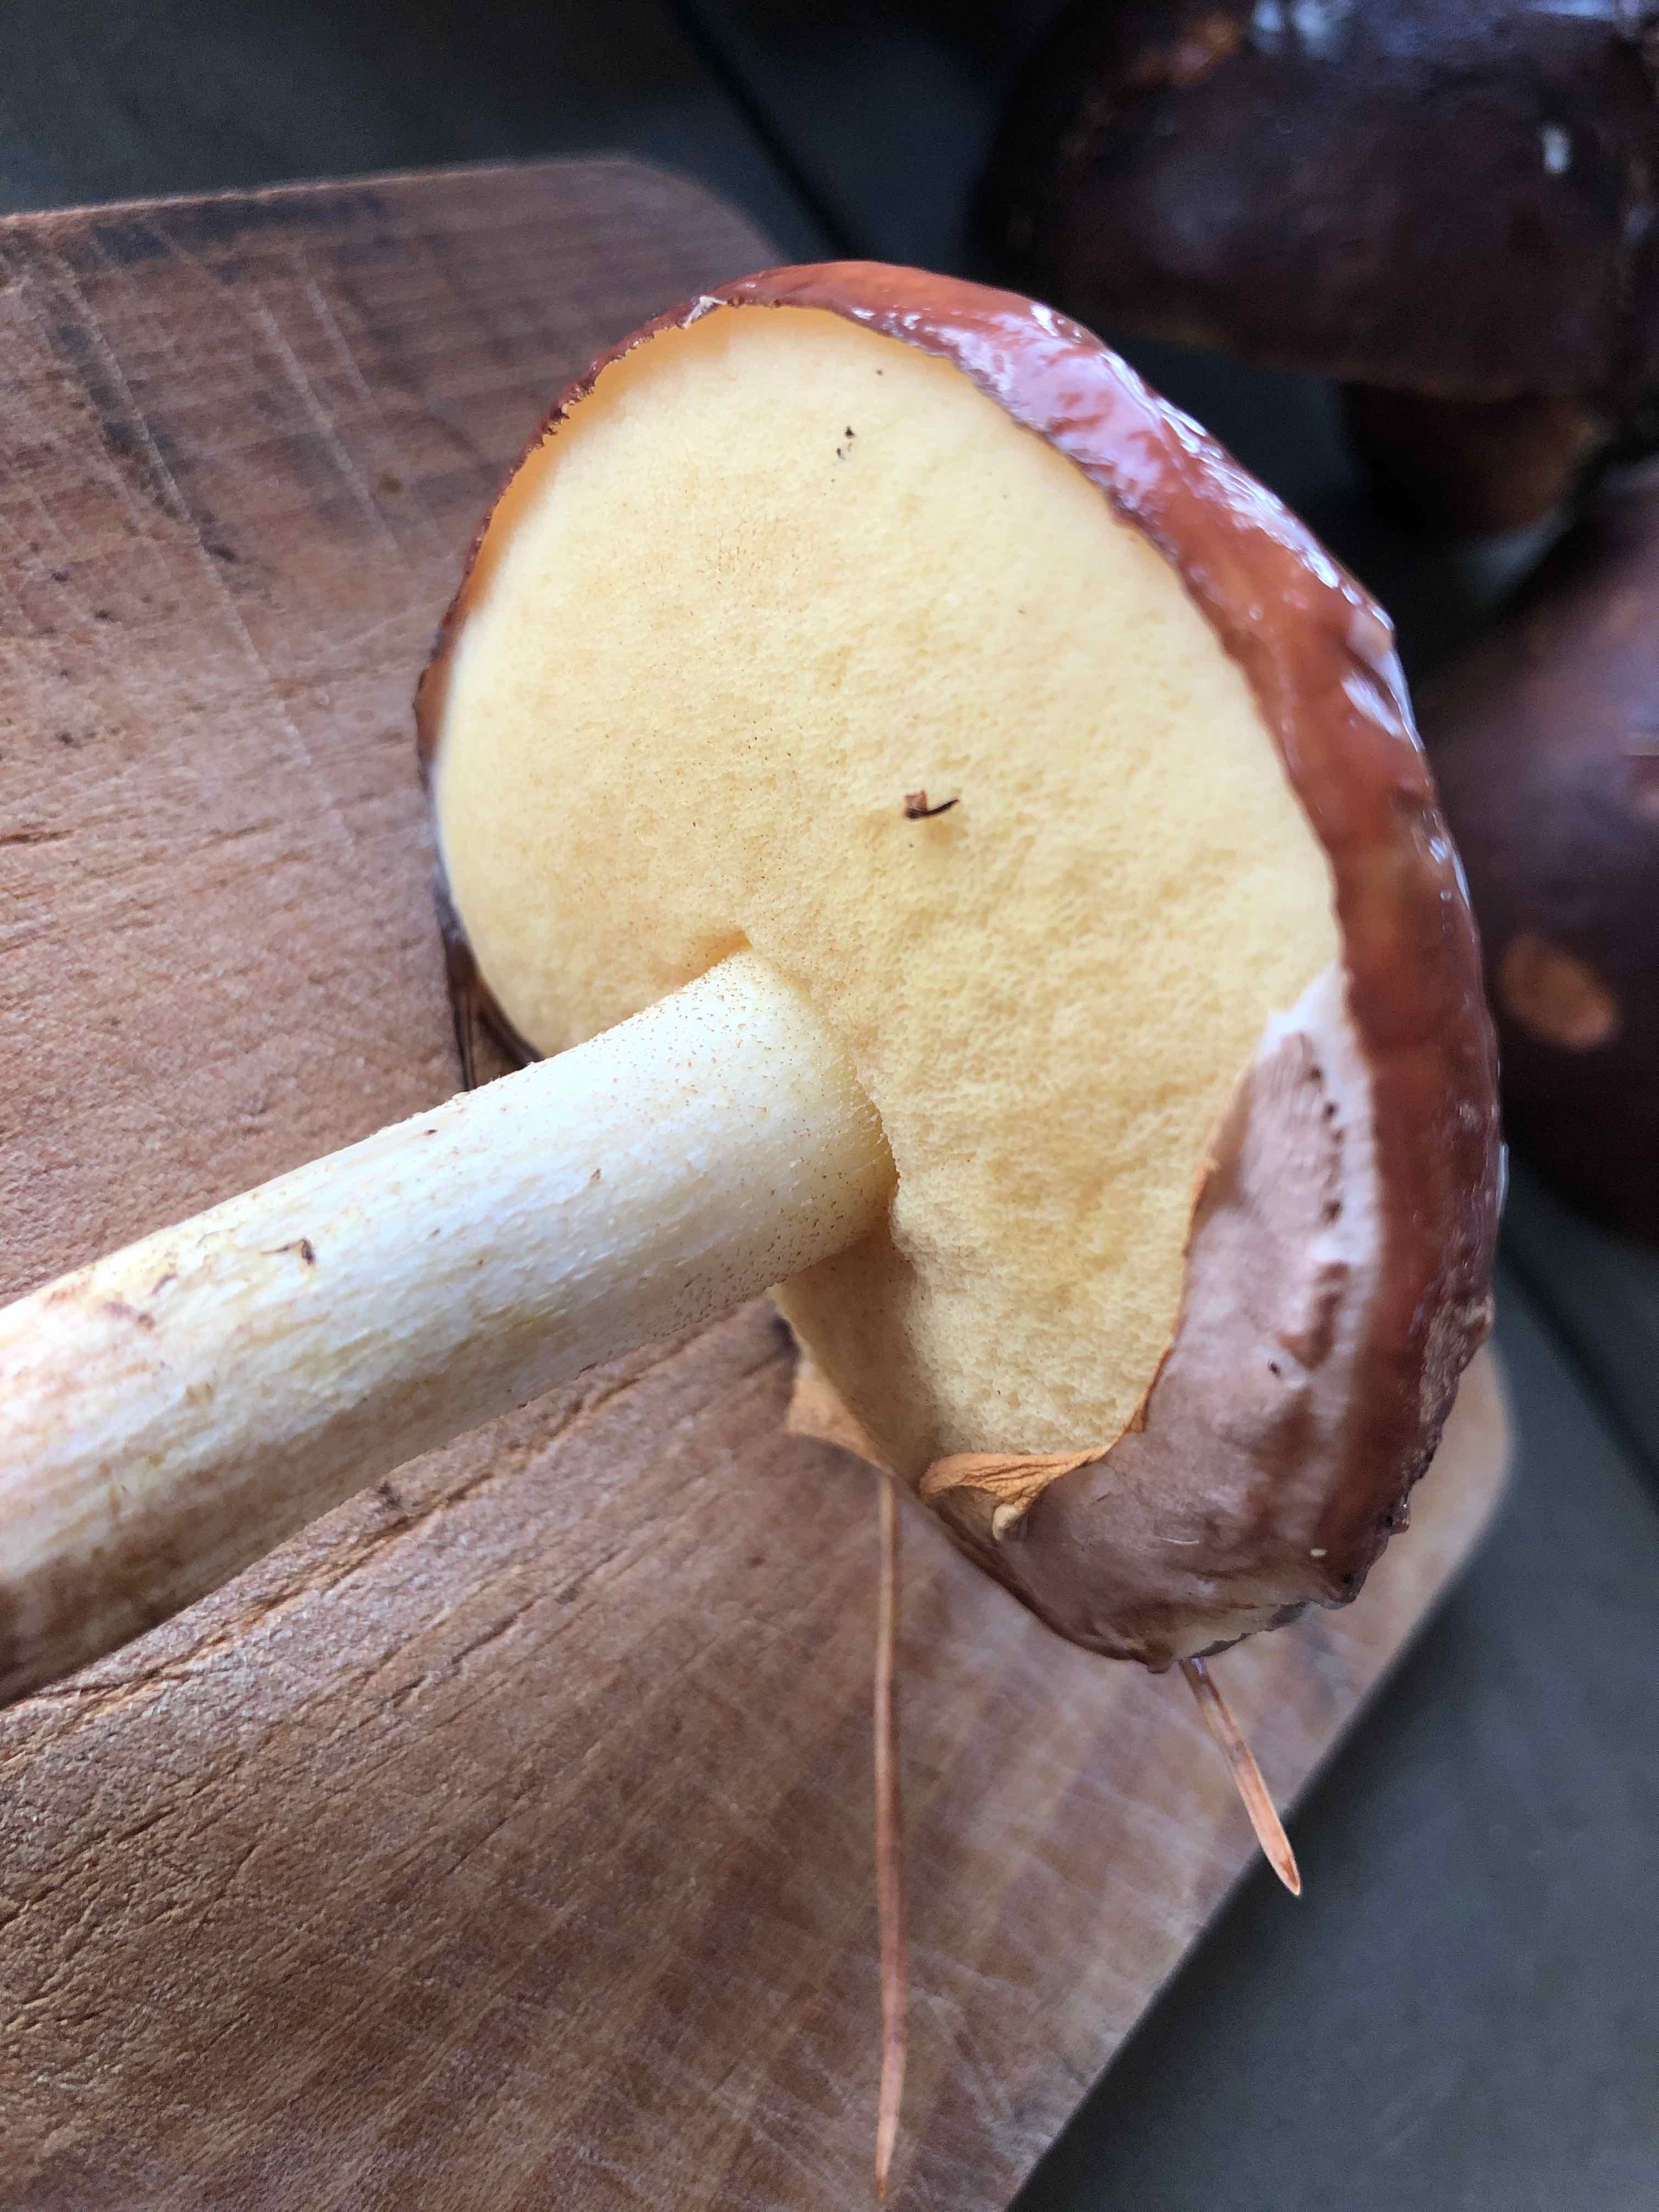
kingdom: Fungi
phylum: Basidiomycota
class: Agaricomycetes
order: Boletales
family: Suillaceae
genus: Suillus
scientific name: Suillus luteus
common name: brungul slimrørhat
